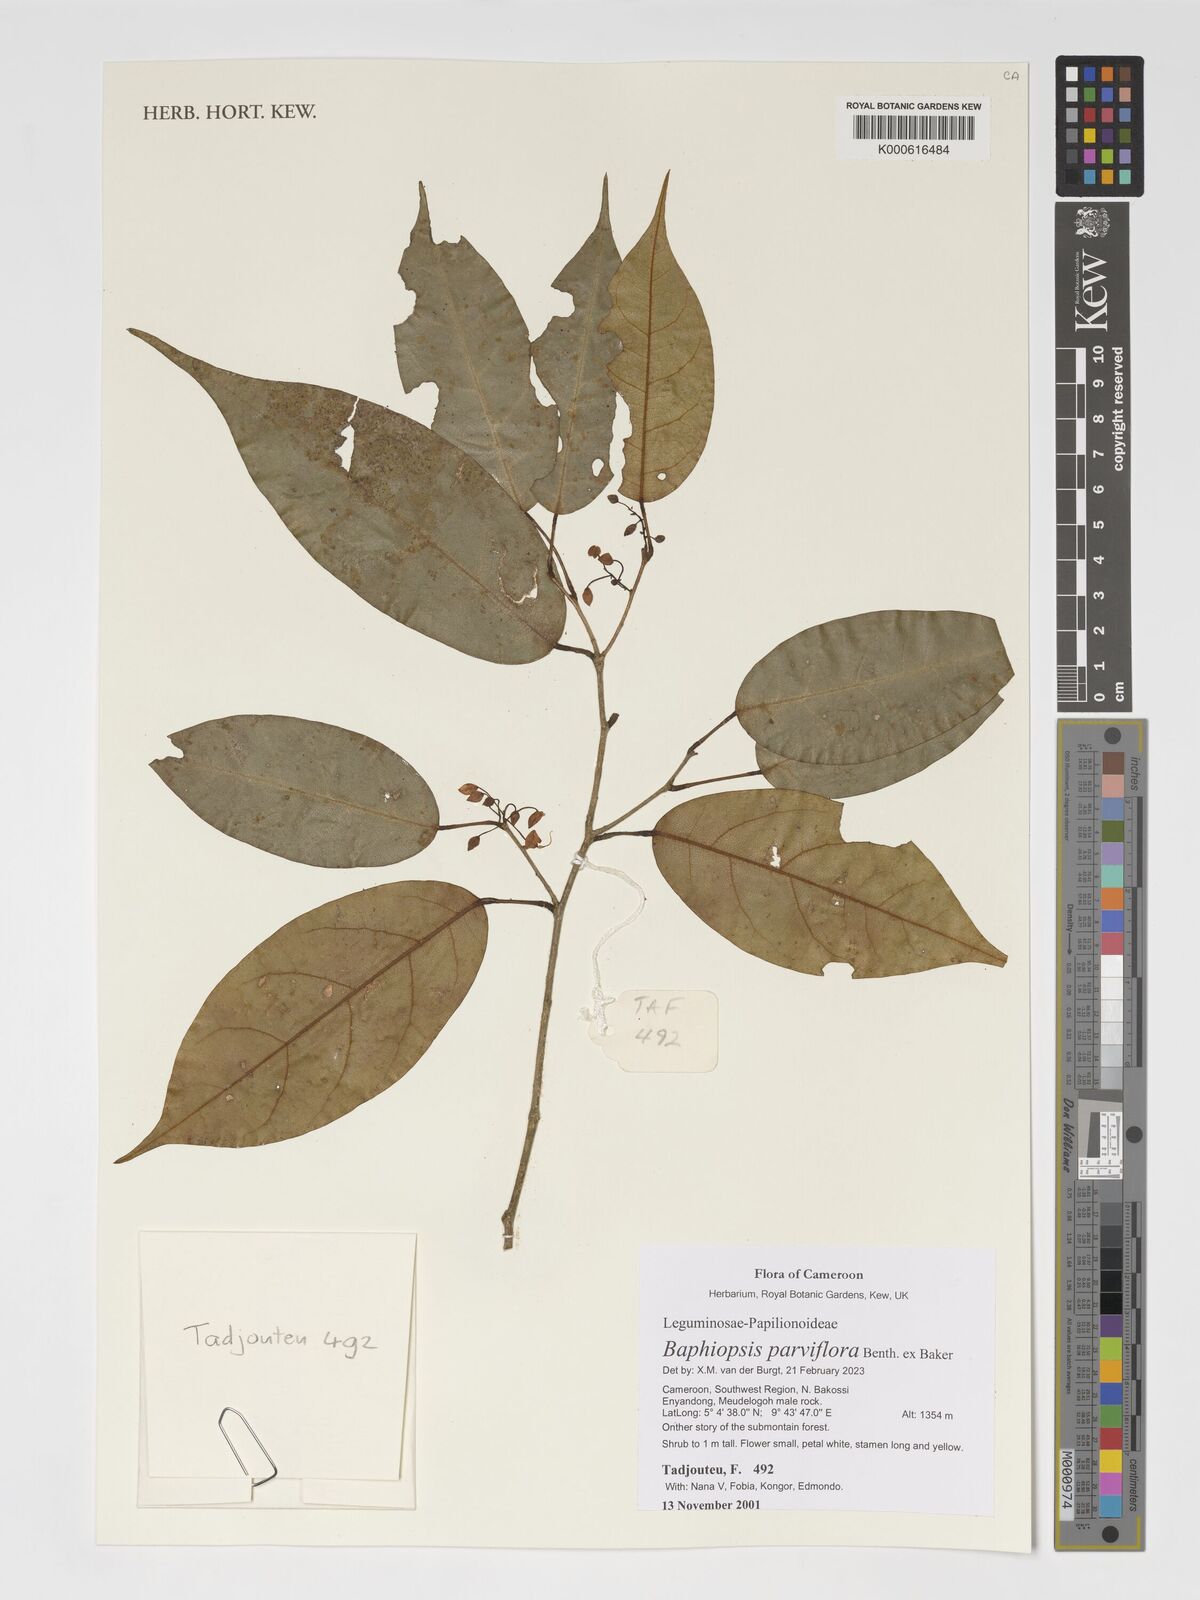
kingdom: Plantae
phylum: Tracheophyta
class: Magnoliopsida
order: Fabales
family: Fabaceae
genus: Baphiopsis
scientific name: Baphiopsis parviflora
